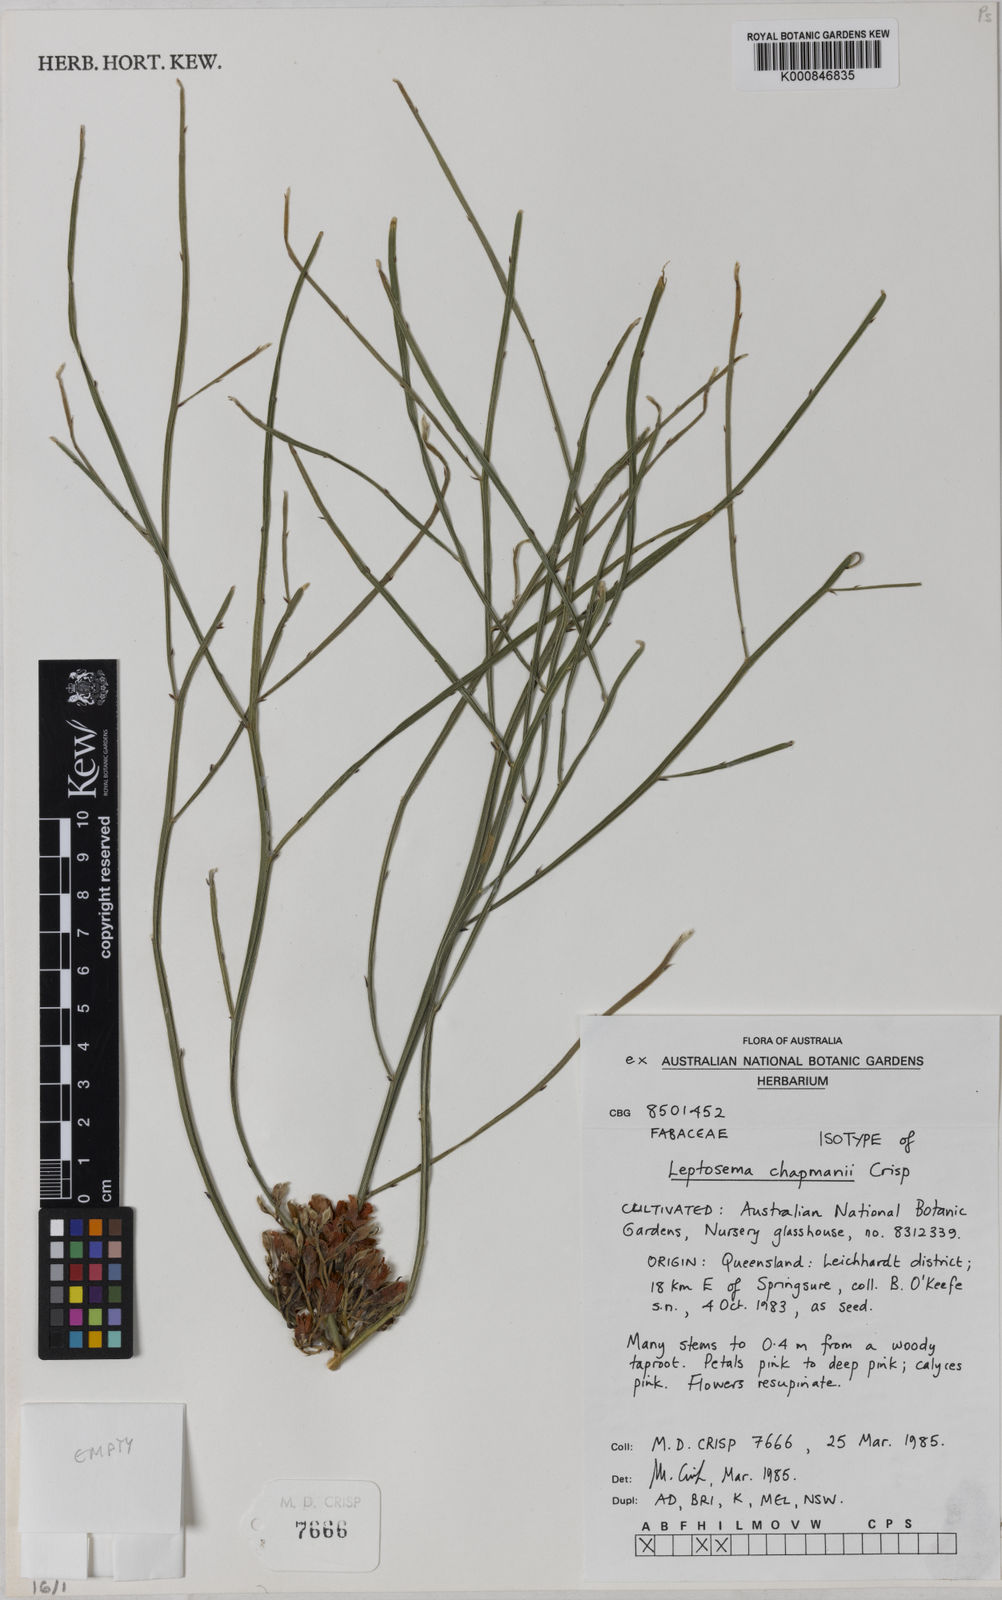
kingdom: Plantae
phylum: Tracheophyta
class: Magnoliopsida
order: Fabales
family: Fabaceae
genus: Leptosema
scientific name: Leptosema chapmanii
